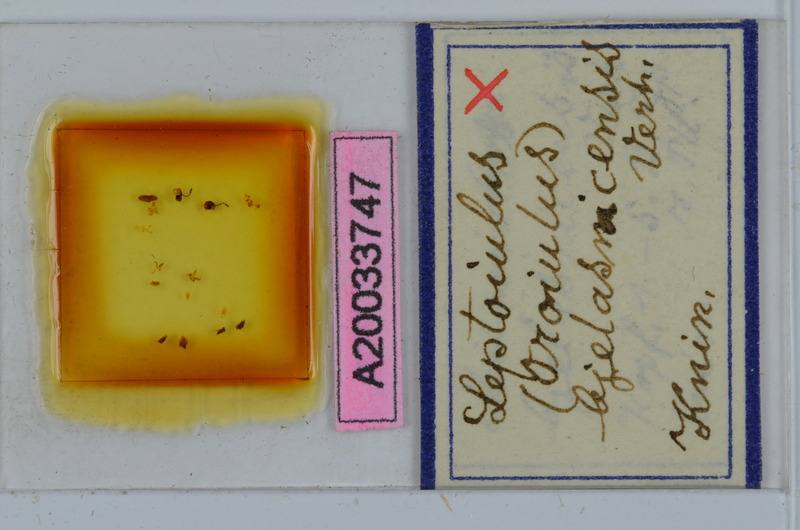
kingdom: Animalia
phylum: Arthropoda
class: Diplopoda
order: Julida
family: Julidae
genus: Xestoiulus
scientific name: Xestoiulus bjelasnicensis
